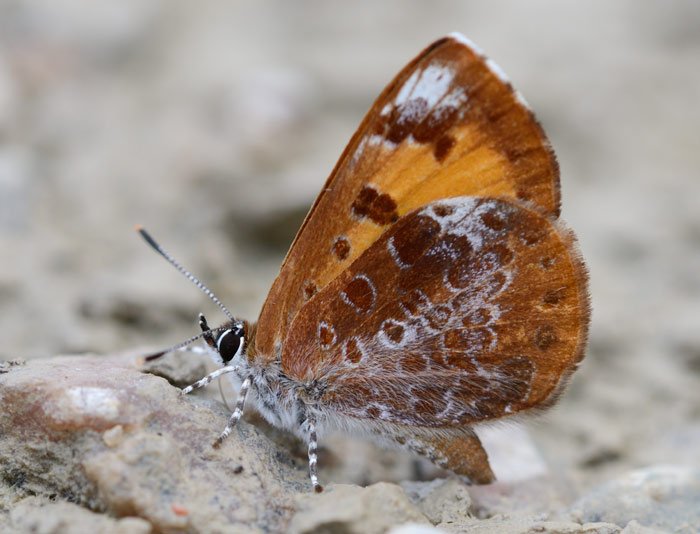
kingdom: Animalia
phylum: Arthropoda
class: Insecta
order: Lepidoptera
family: Lycaenidae
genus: Feniseca
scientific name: Feniseca tarquinius
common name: Harvester
